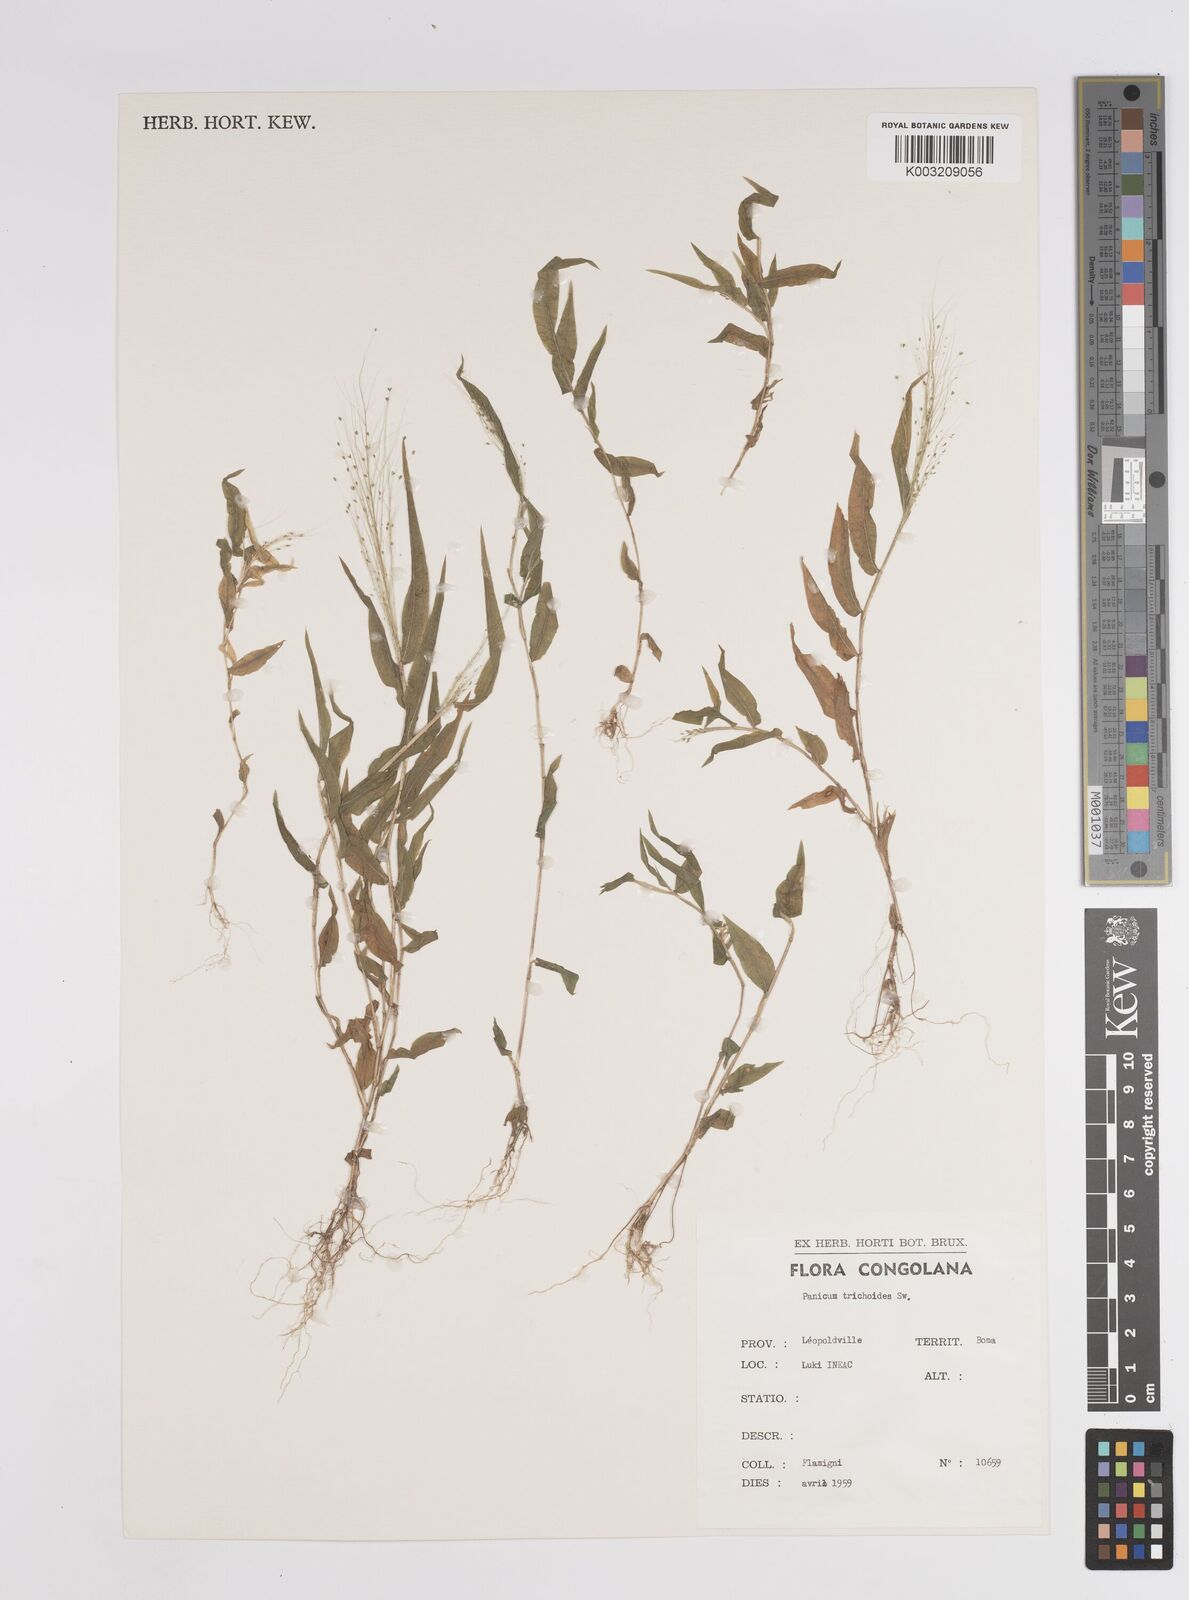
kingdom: Plantae
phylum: Tracheophyta
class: Liliopsida
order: Poales
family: Poaceae
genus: Panicum
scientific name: Panicum trichoides
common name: Tickle grass
